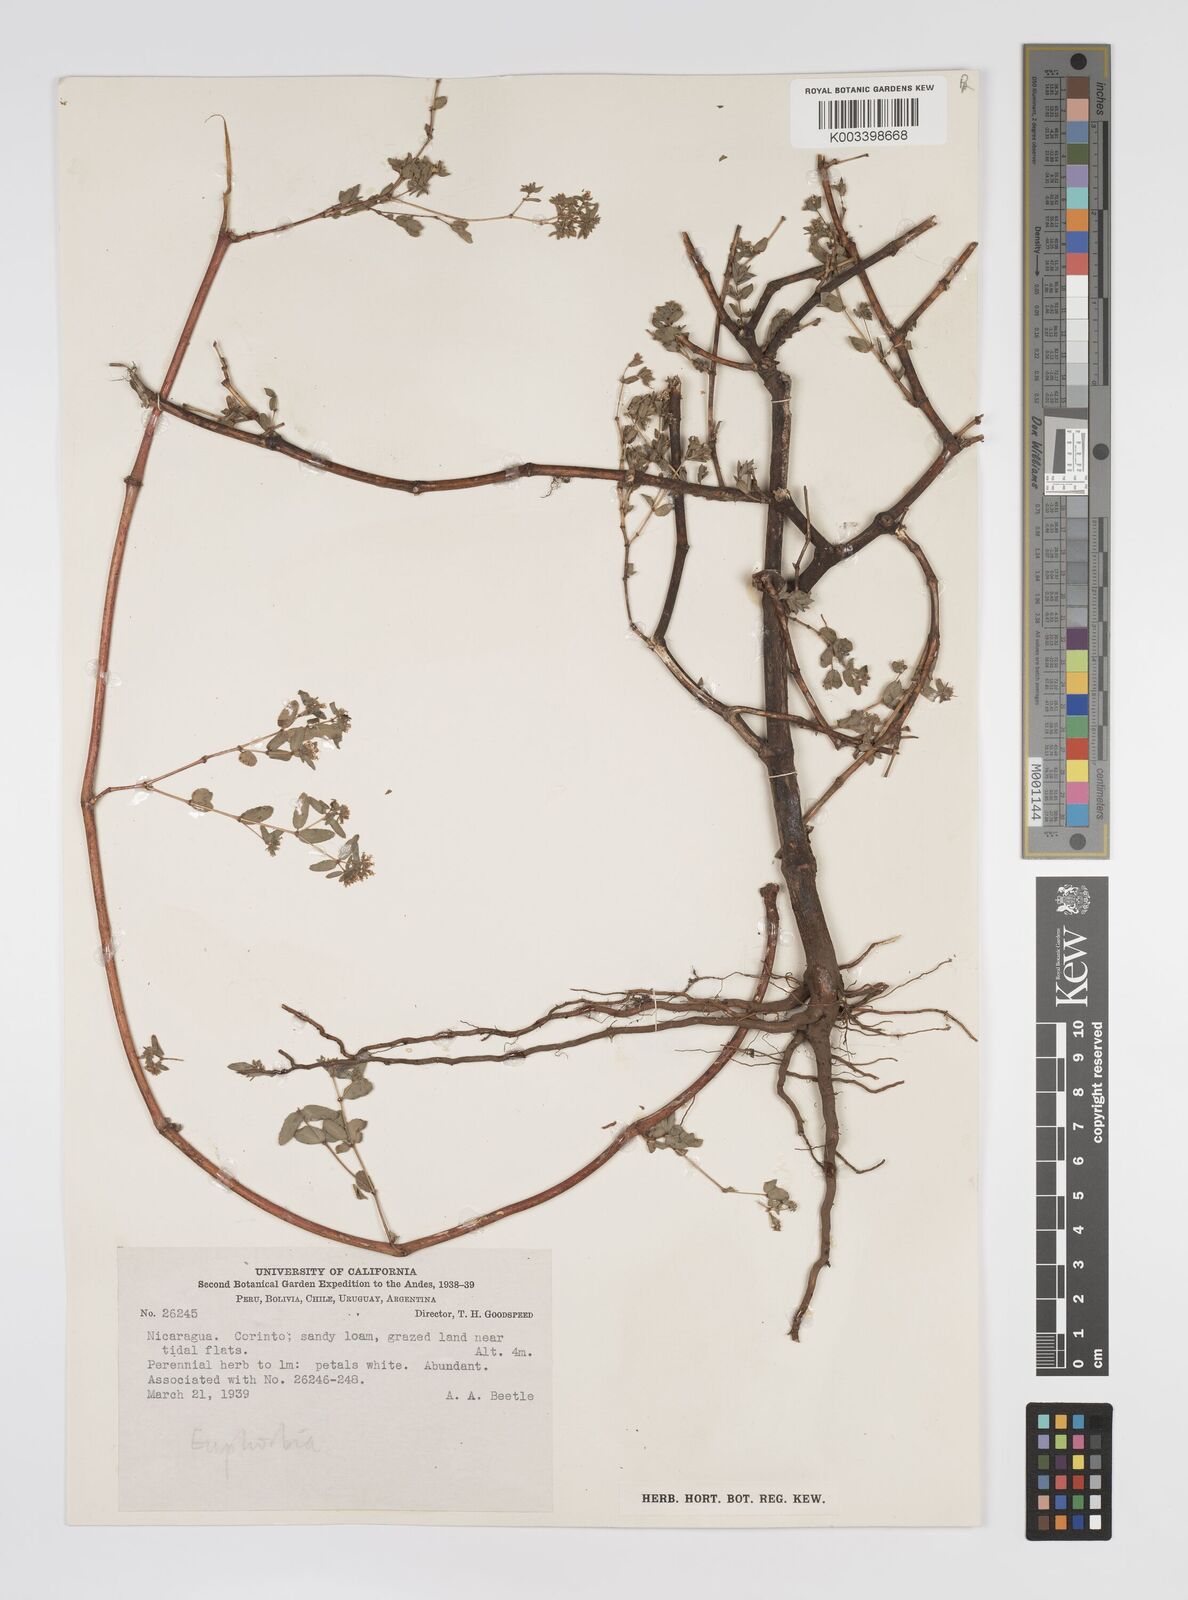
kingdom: Plantae
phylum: Tracheophyta
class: Magnoliopsida
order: Malpighiales
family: Euphorbiaceae
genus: Euphorbia
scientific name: Euphorbia
